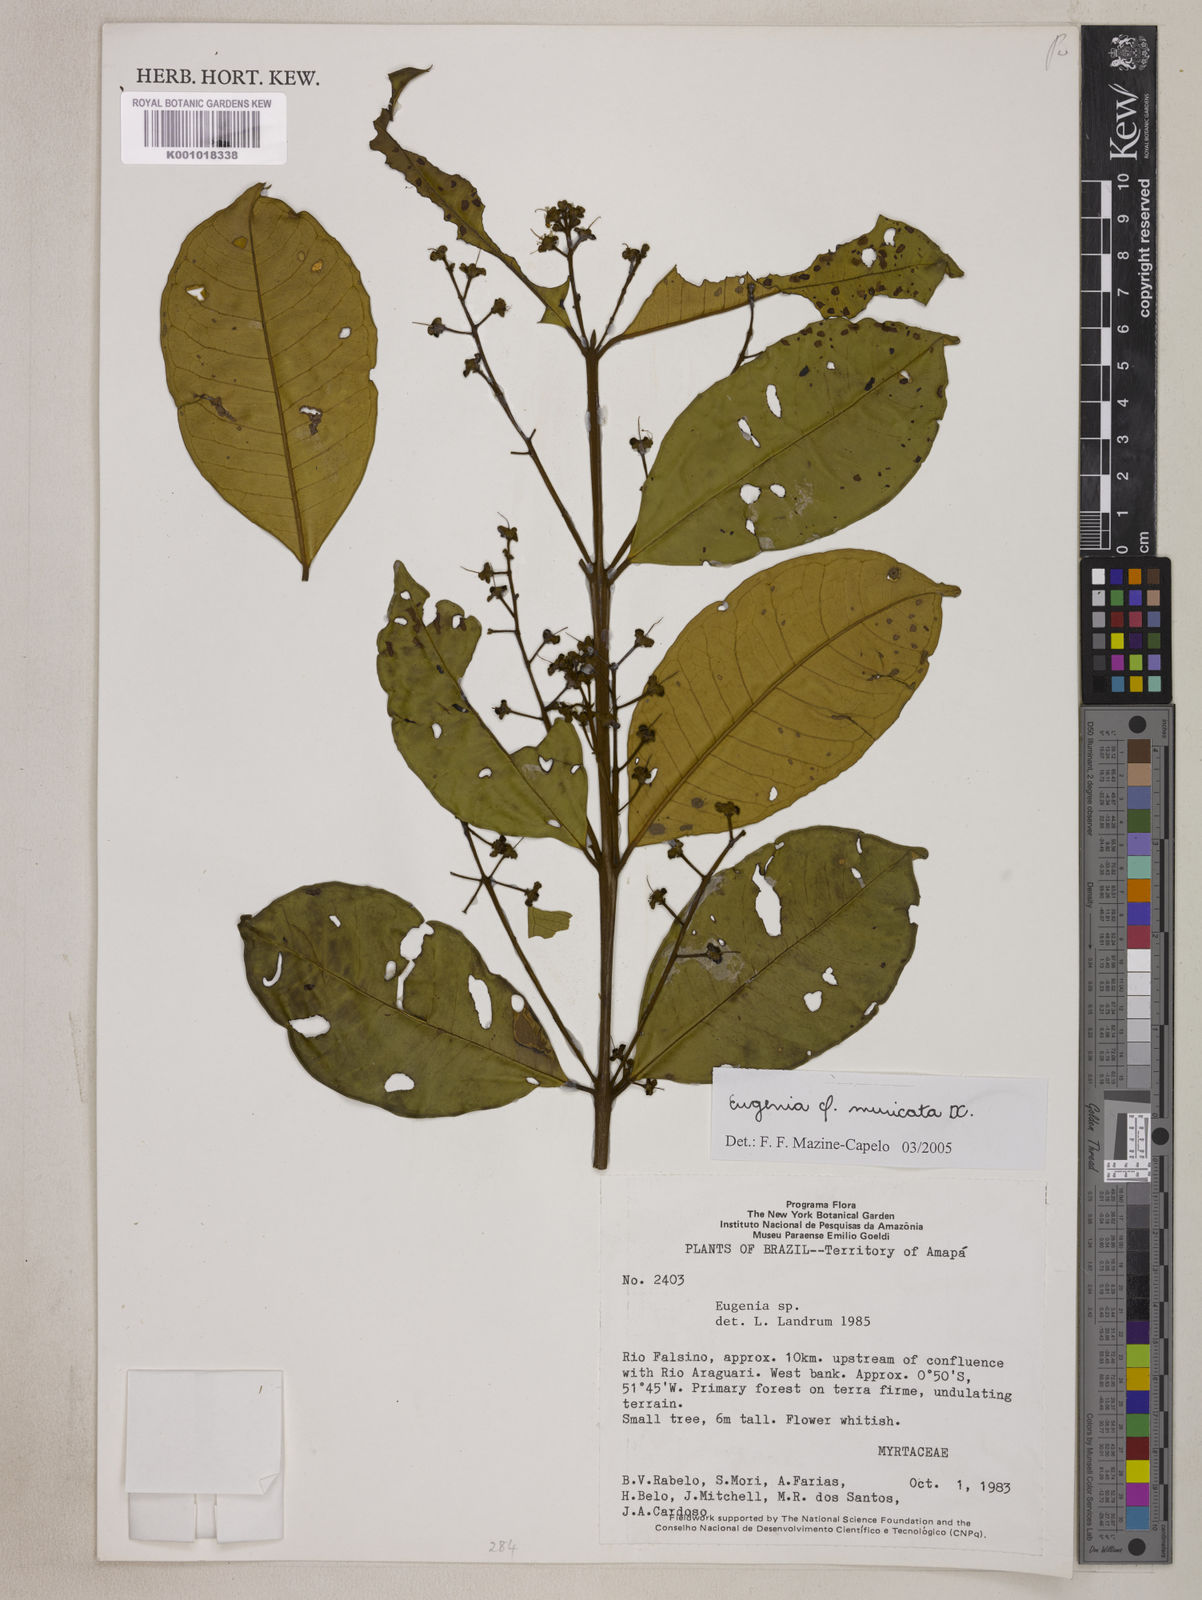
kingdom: Plantae
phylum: Tracheophyta
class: Magnoliopsida
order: Myrtales
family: Myrtaceae
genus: Eugenia
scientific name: Eugenia muricata
